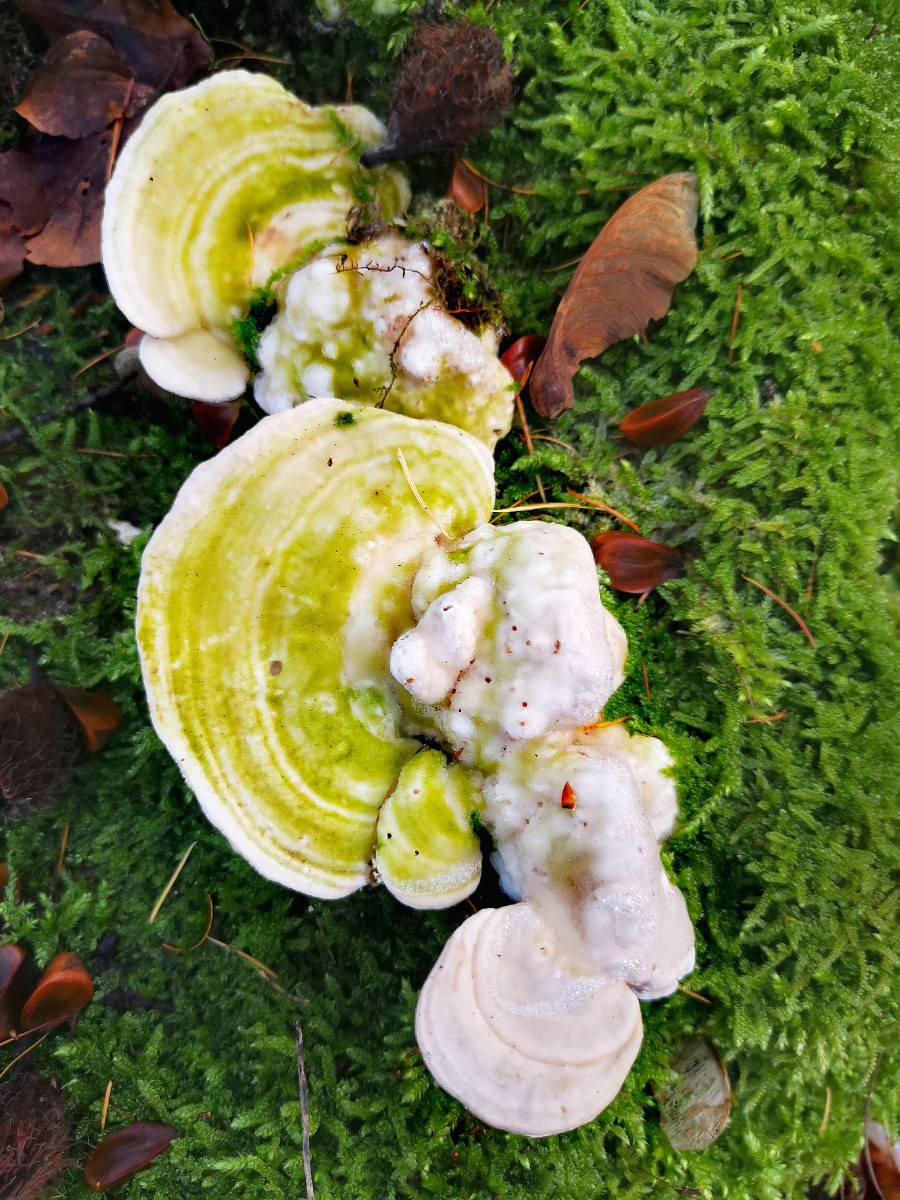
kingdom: Fungi
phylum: Basidiomycota
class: Agaricomycetes
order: Polyporales
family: Polyporaceae
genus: Trametes
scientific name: Trametes gibbosa
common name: puklet læderporesvamp
